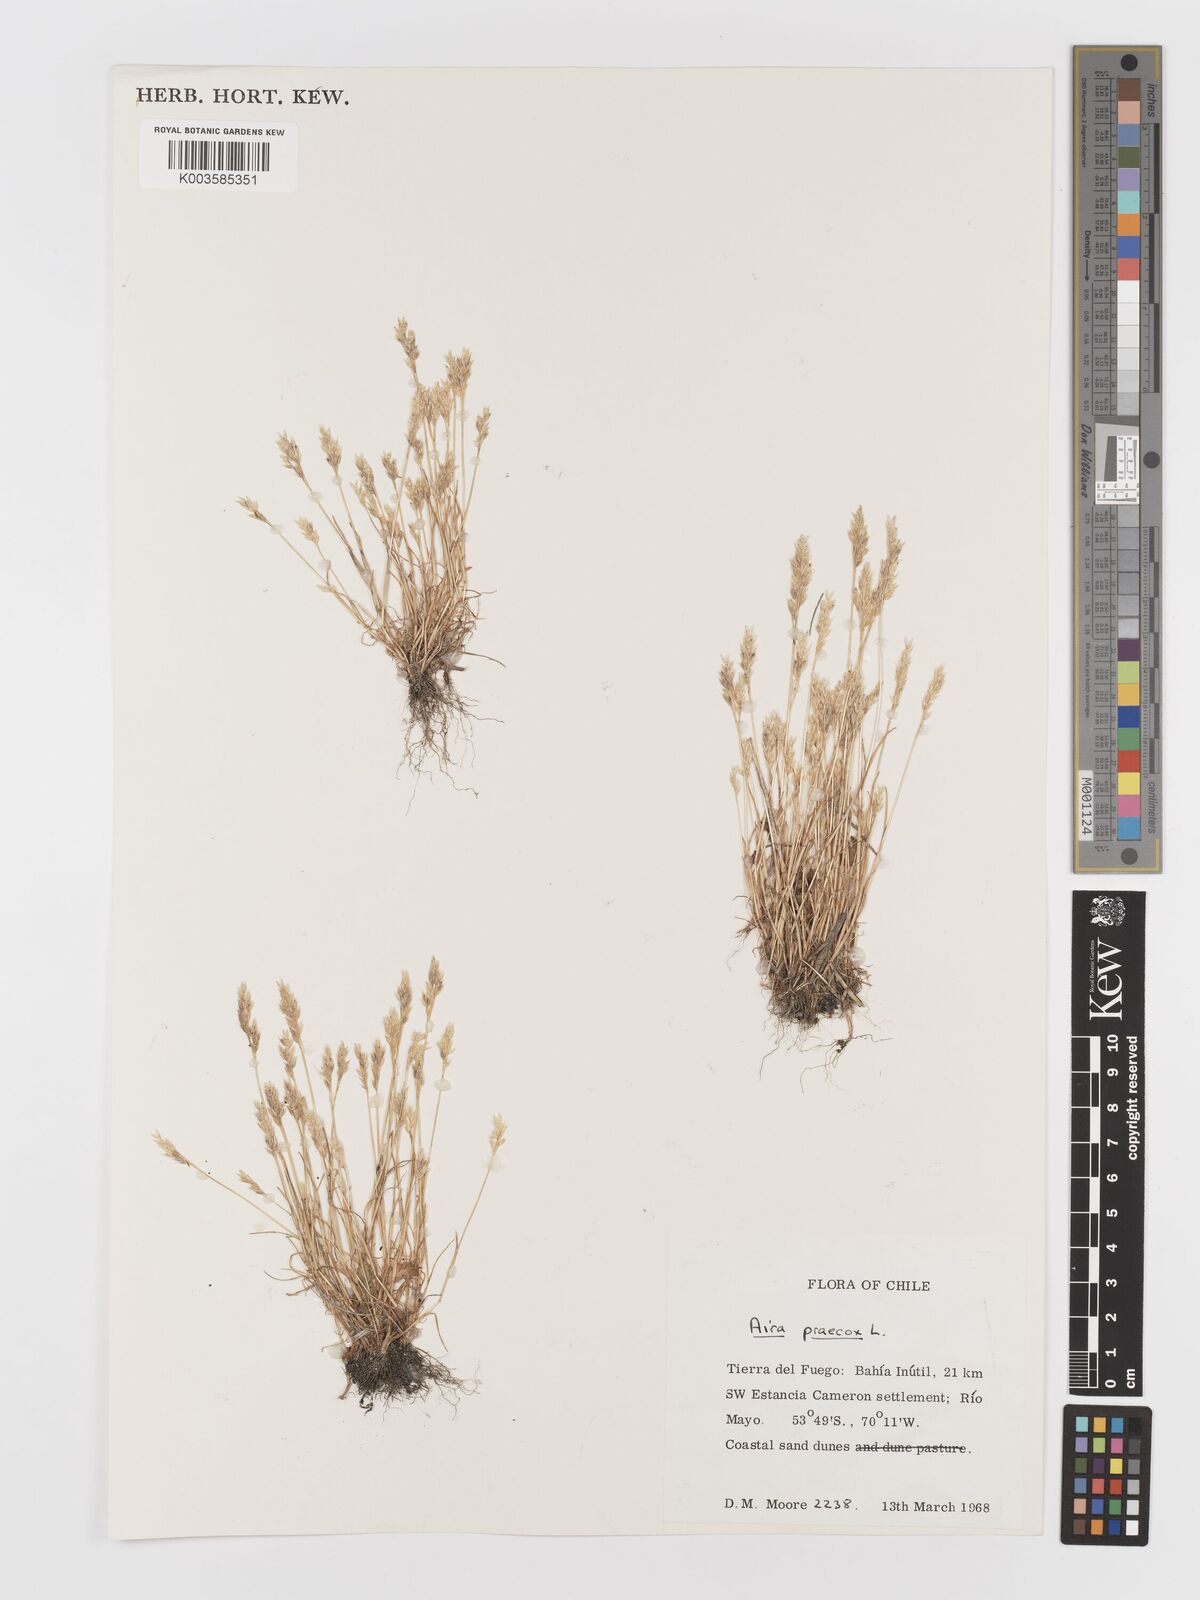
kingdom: Plantae
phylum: Tracheophyta
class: Liliopsida
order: Poales
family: Poaceae
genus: Aira
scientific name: Aira praecox
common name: Early hair-grass
